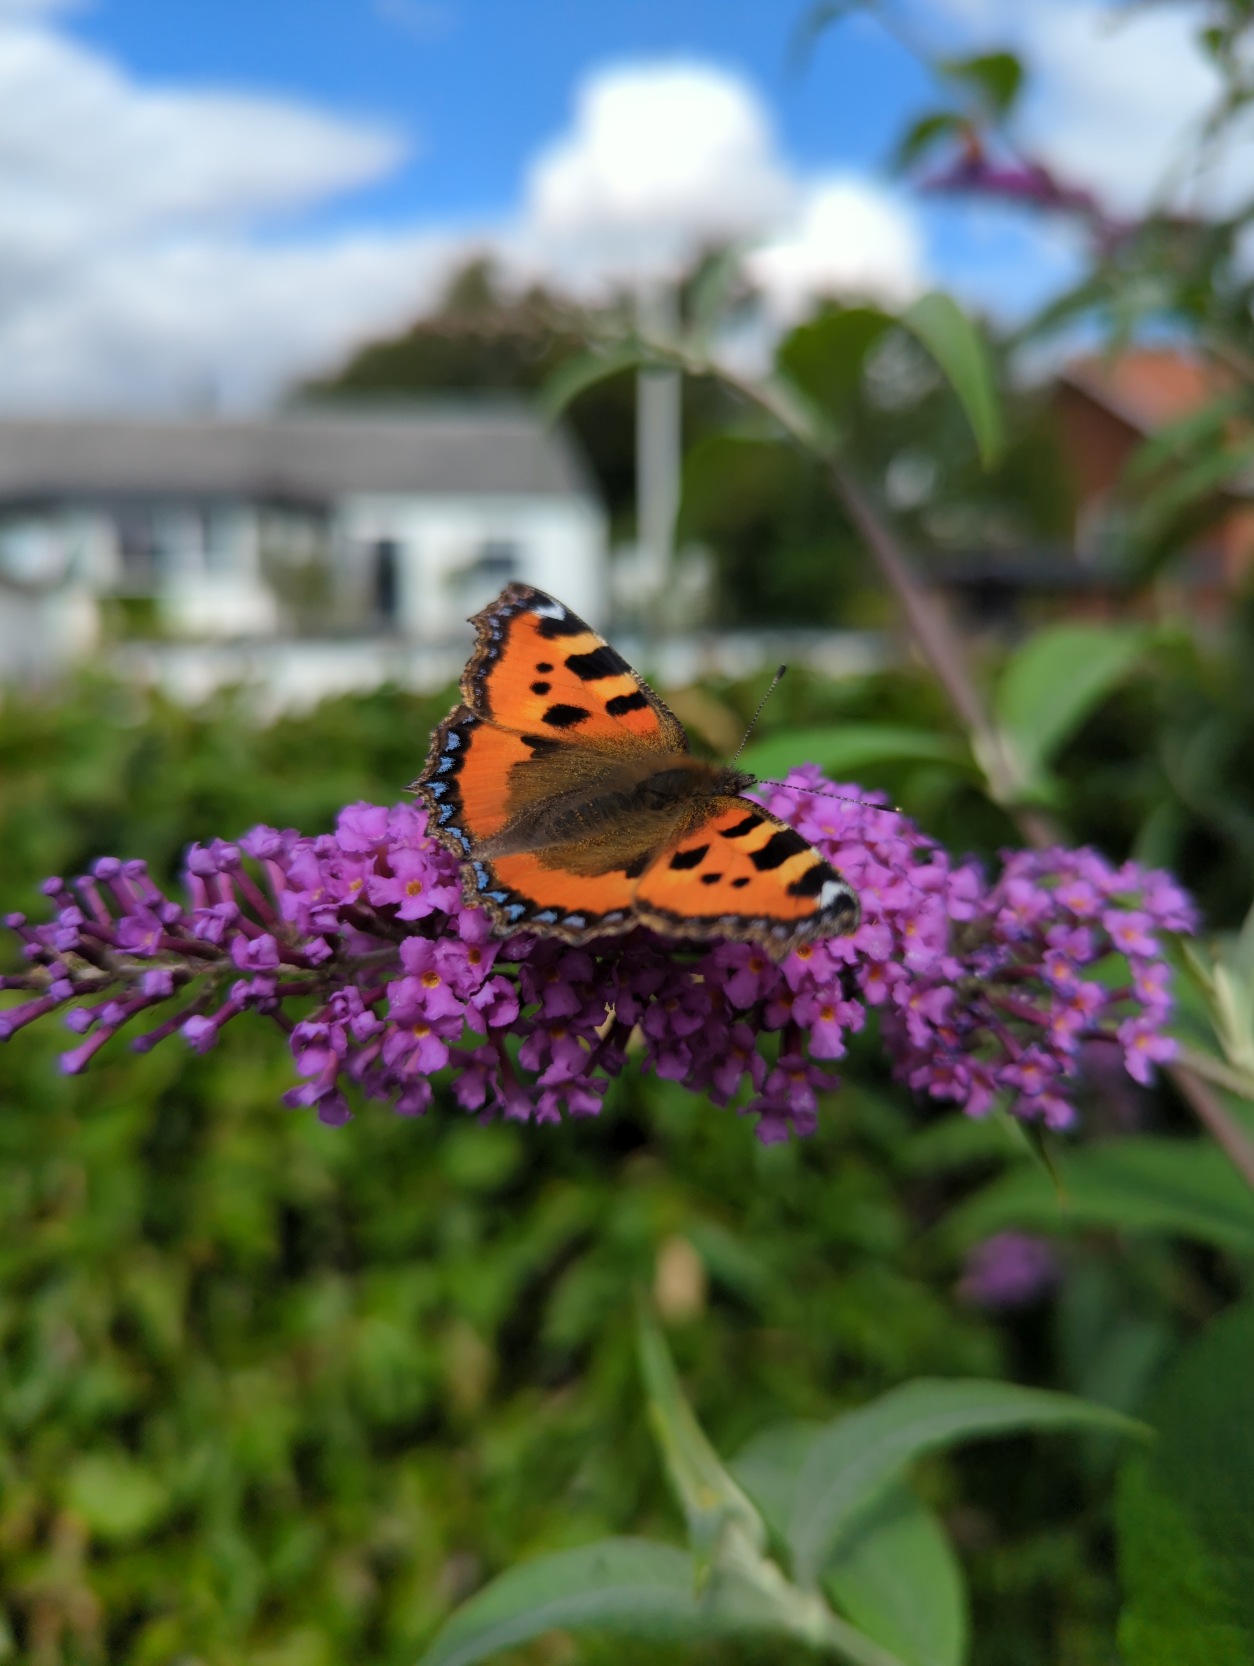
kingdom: Animalia
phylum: Arthropoda
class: Insecta
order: Lepidoptera
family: Nymphalidae
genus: Aglais
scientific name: Aglais urticae
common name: Nældens takvinge
